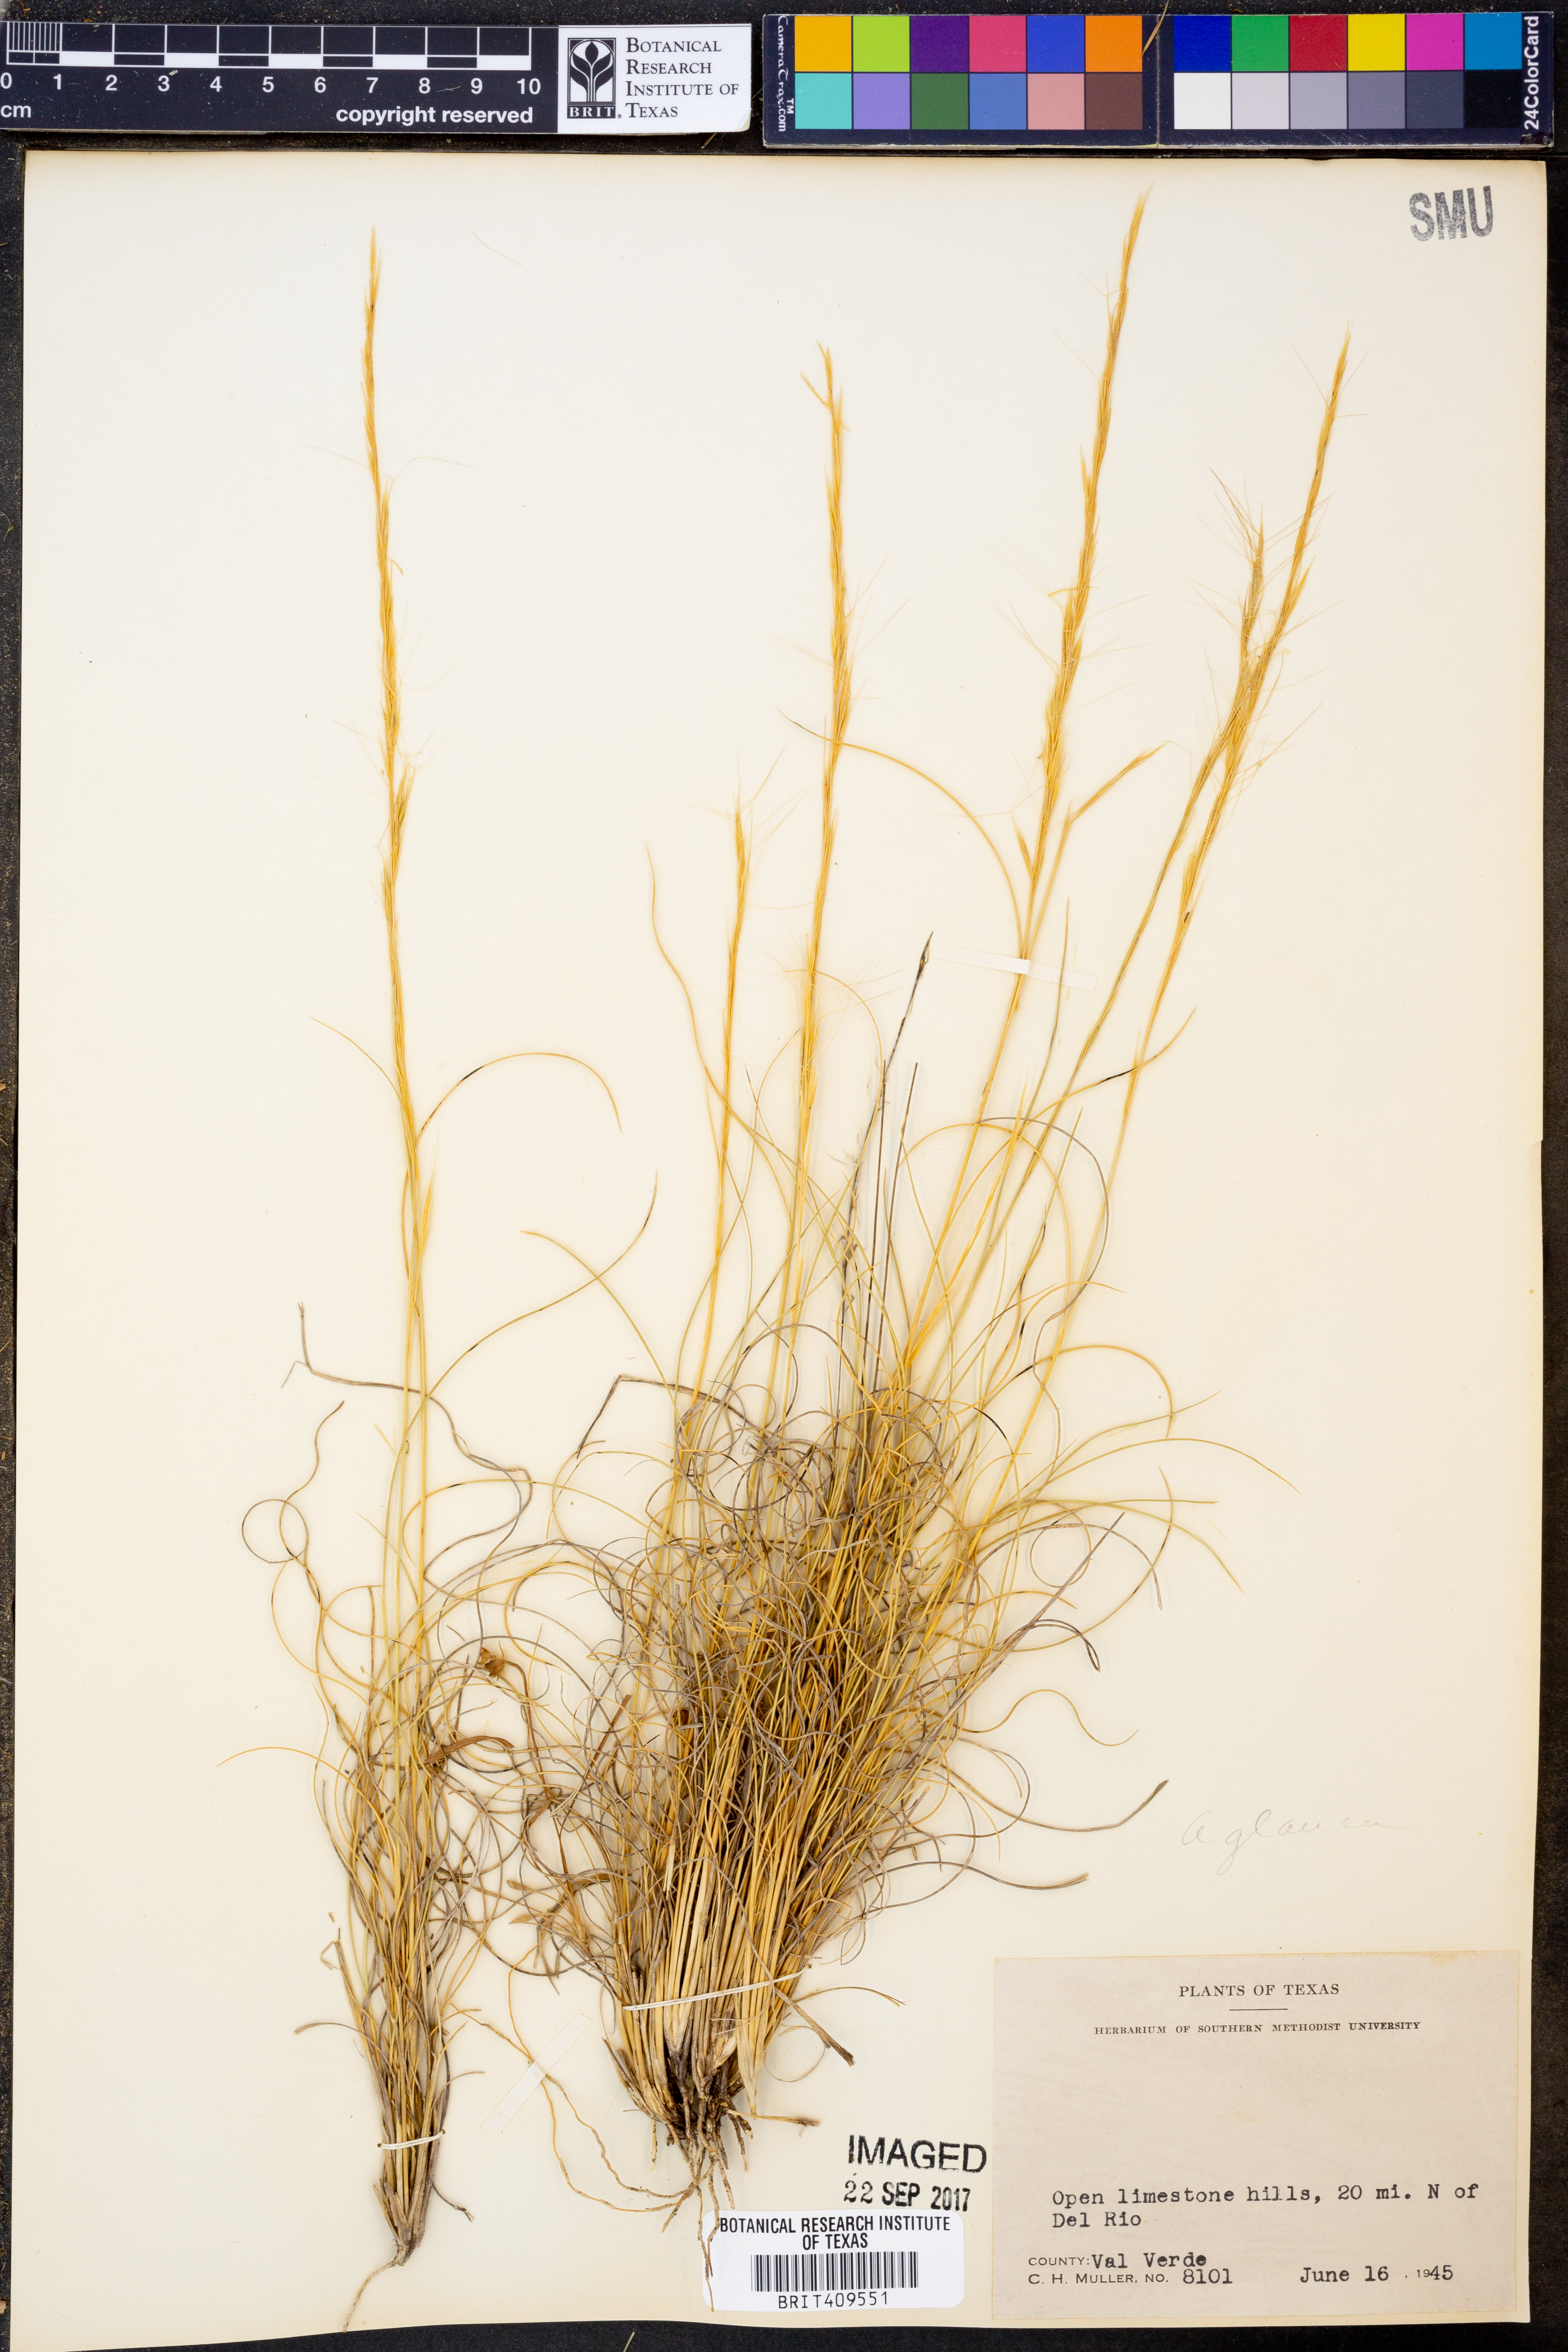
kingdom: Plantae
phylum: Tracheophyta
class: Liliopsida
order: Poales
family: Poaceae
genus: Aristida
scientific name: Aristida glauca
